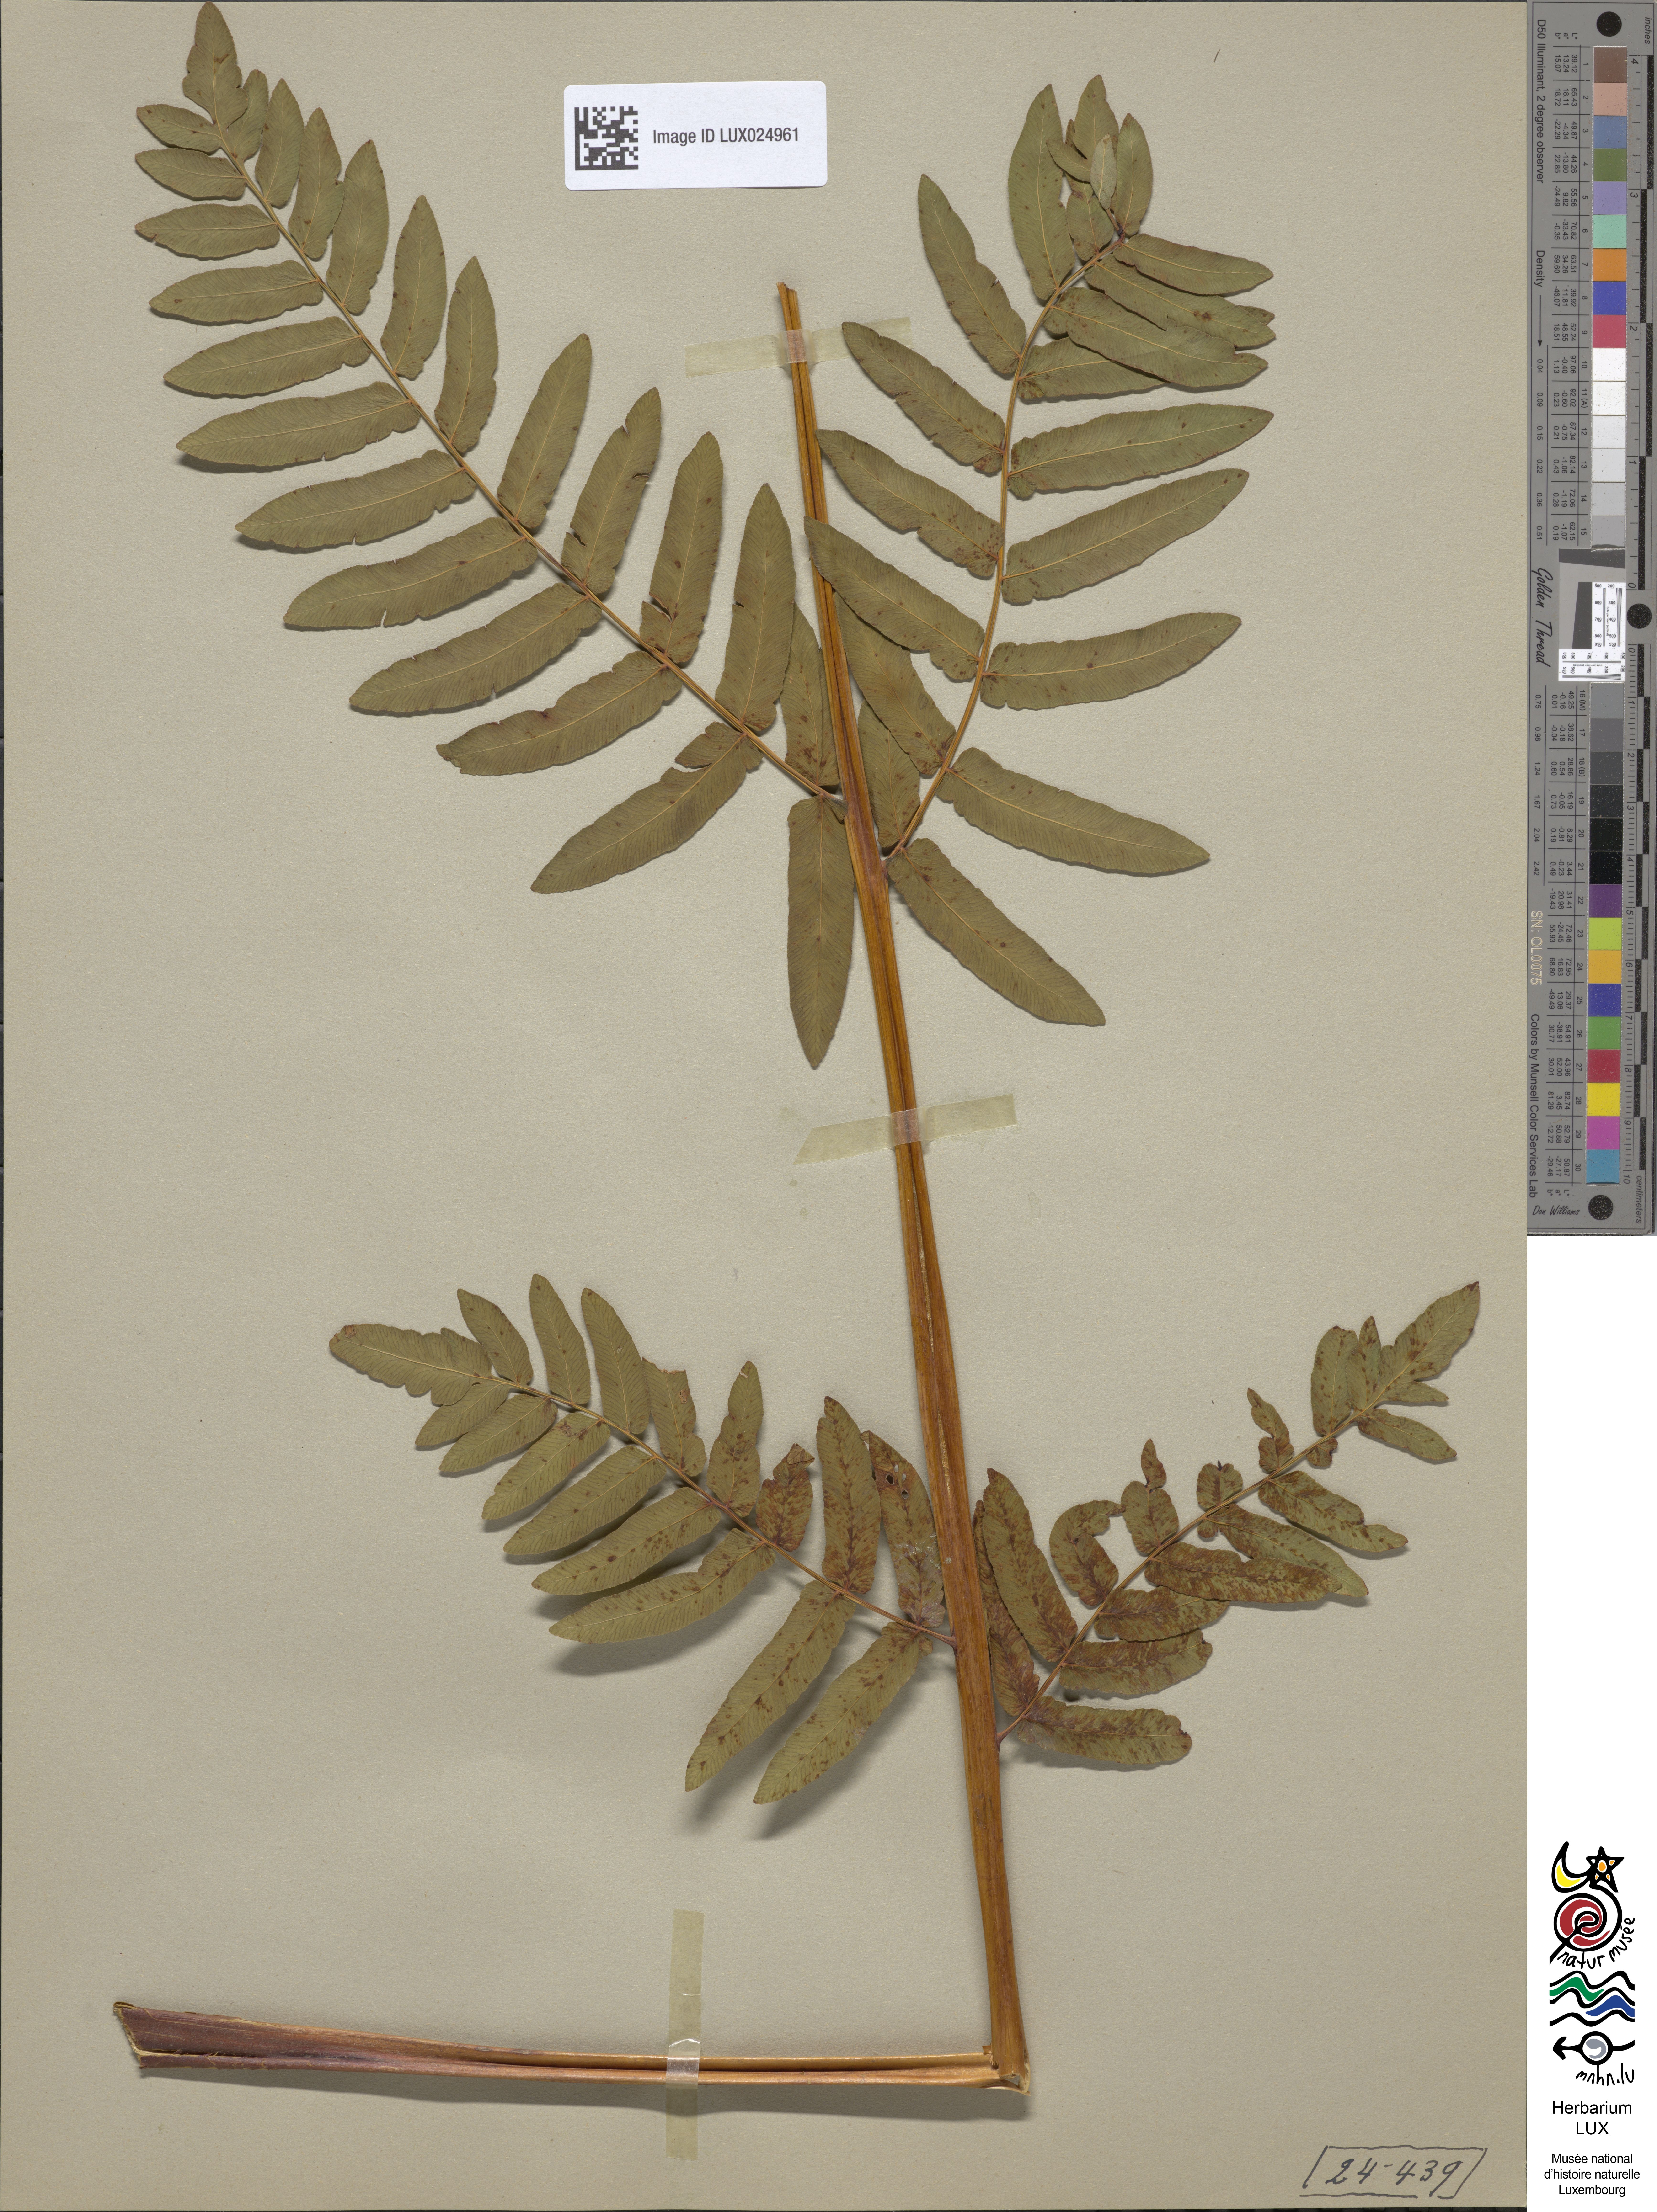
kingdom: Plantae
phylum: Tracheophyta
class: Polypodiopsida
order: Osmundales
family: Osmundaceae
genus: Osmunda
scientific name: Osmunda regalis
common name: Royal fern
